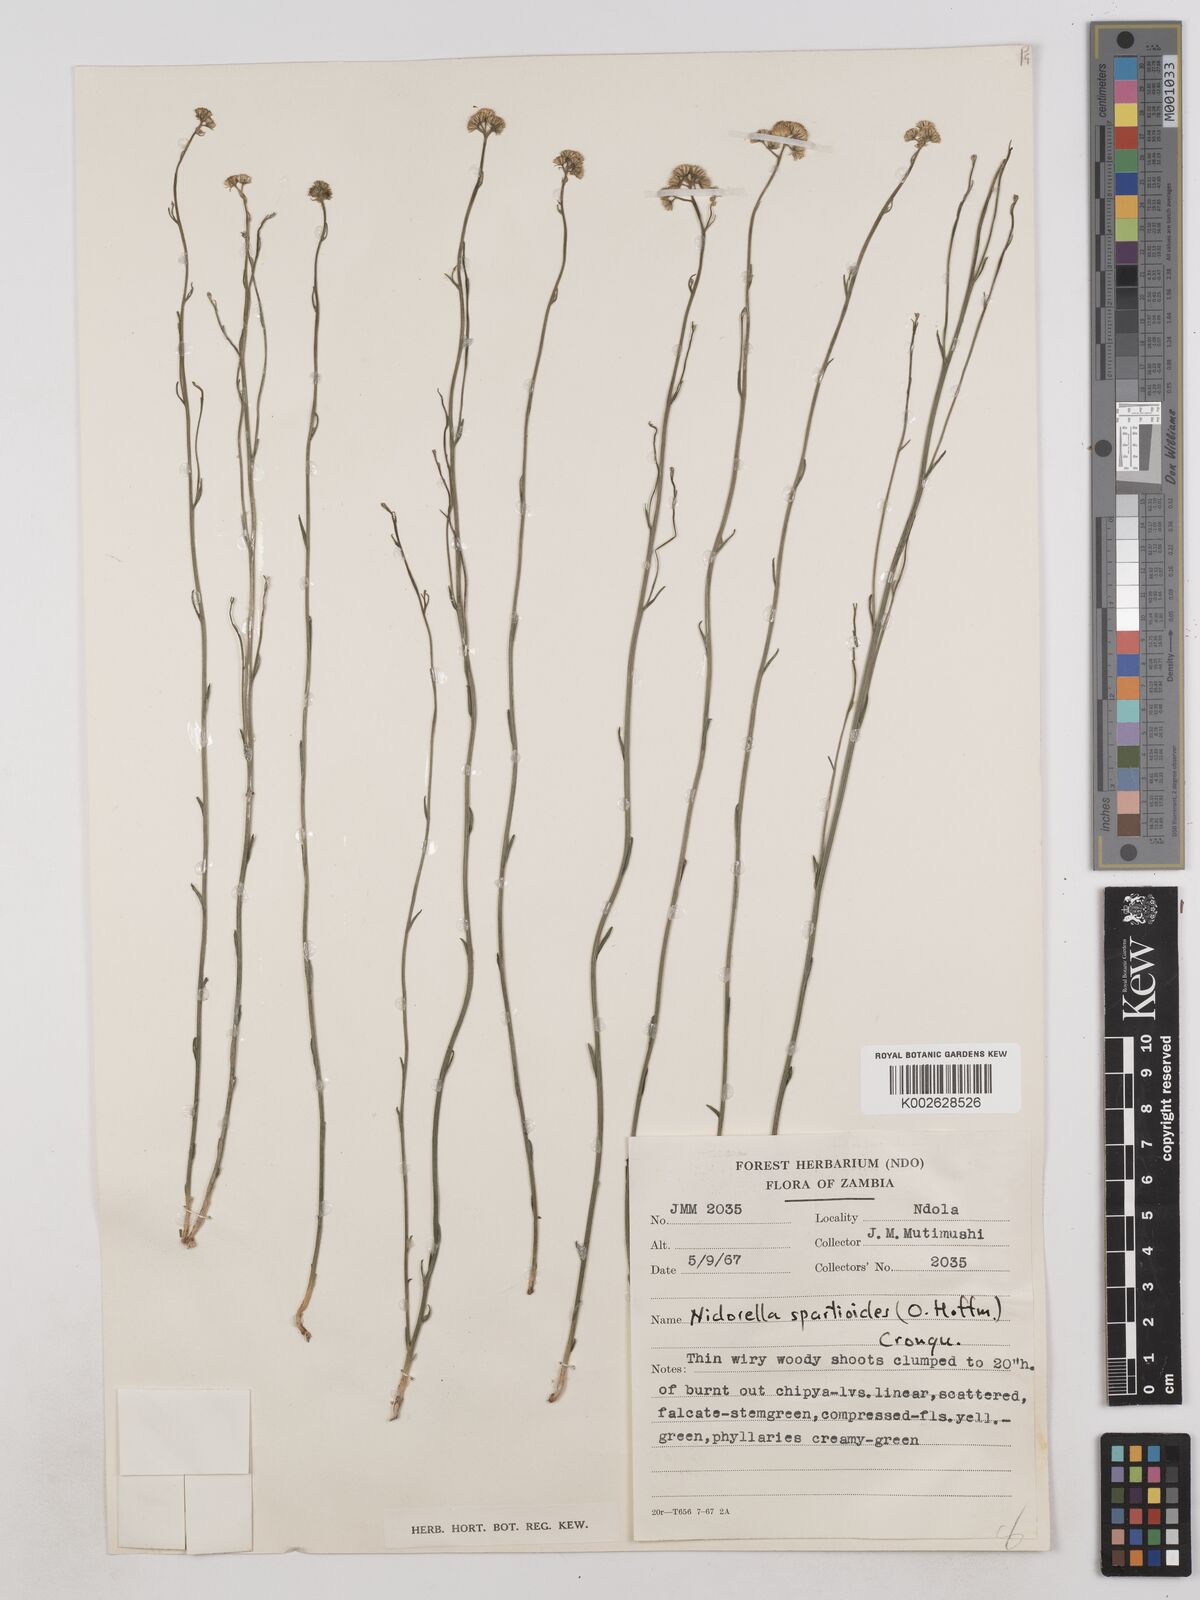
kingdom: Plantae
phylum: Tracheophyta
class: Magnoliopsida
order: Asterales
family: Asteraceae
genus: Nidorella
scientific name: Nidorella spartioides
